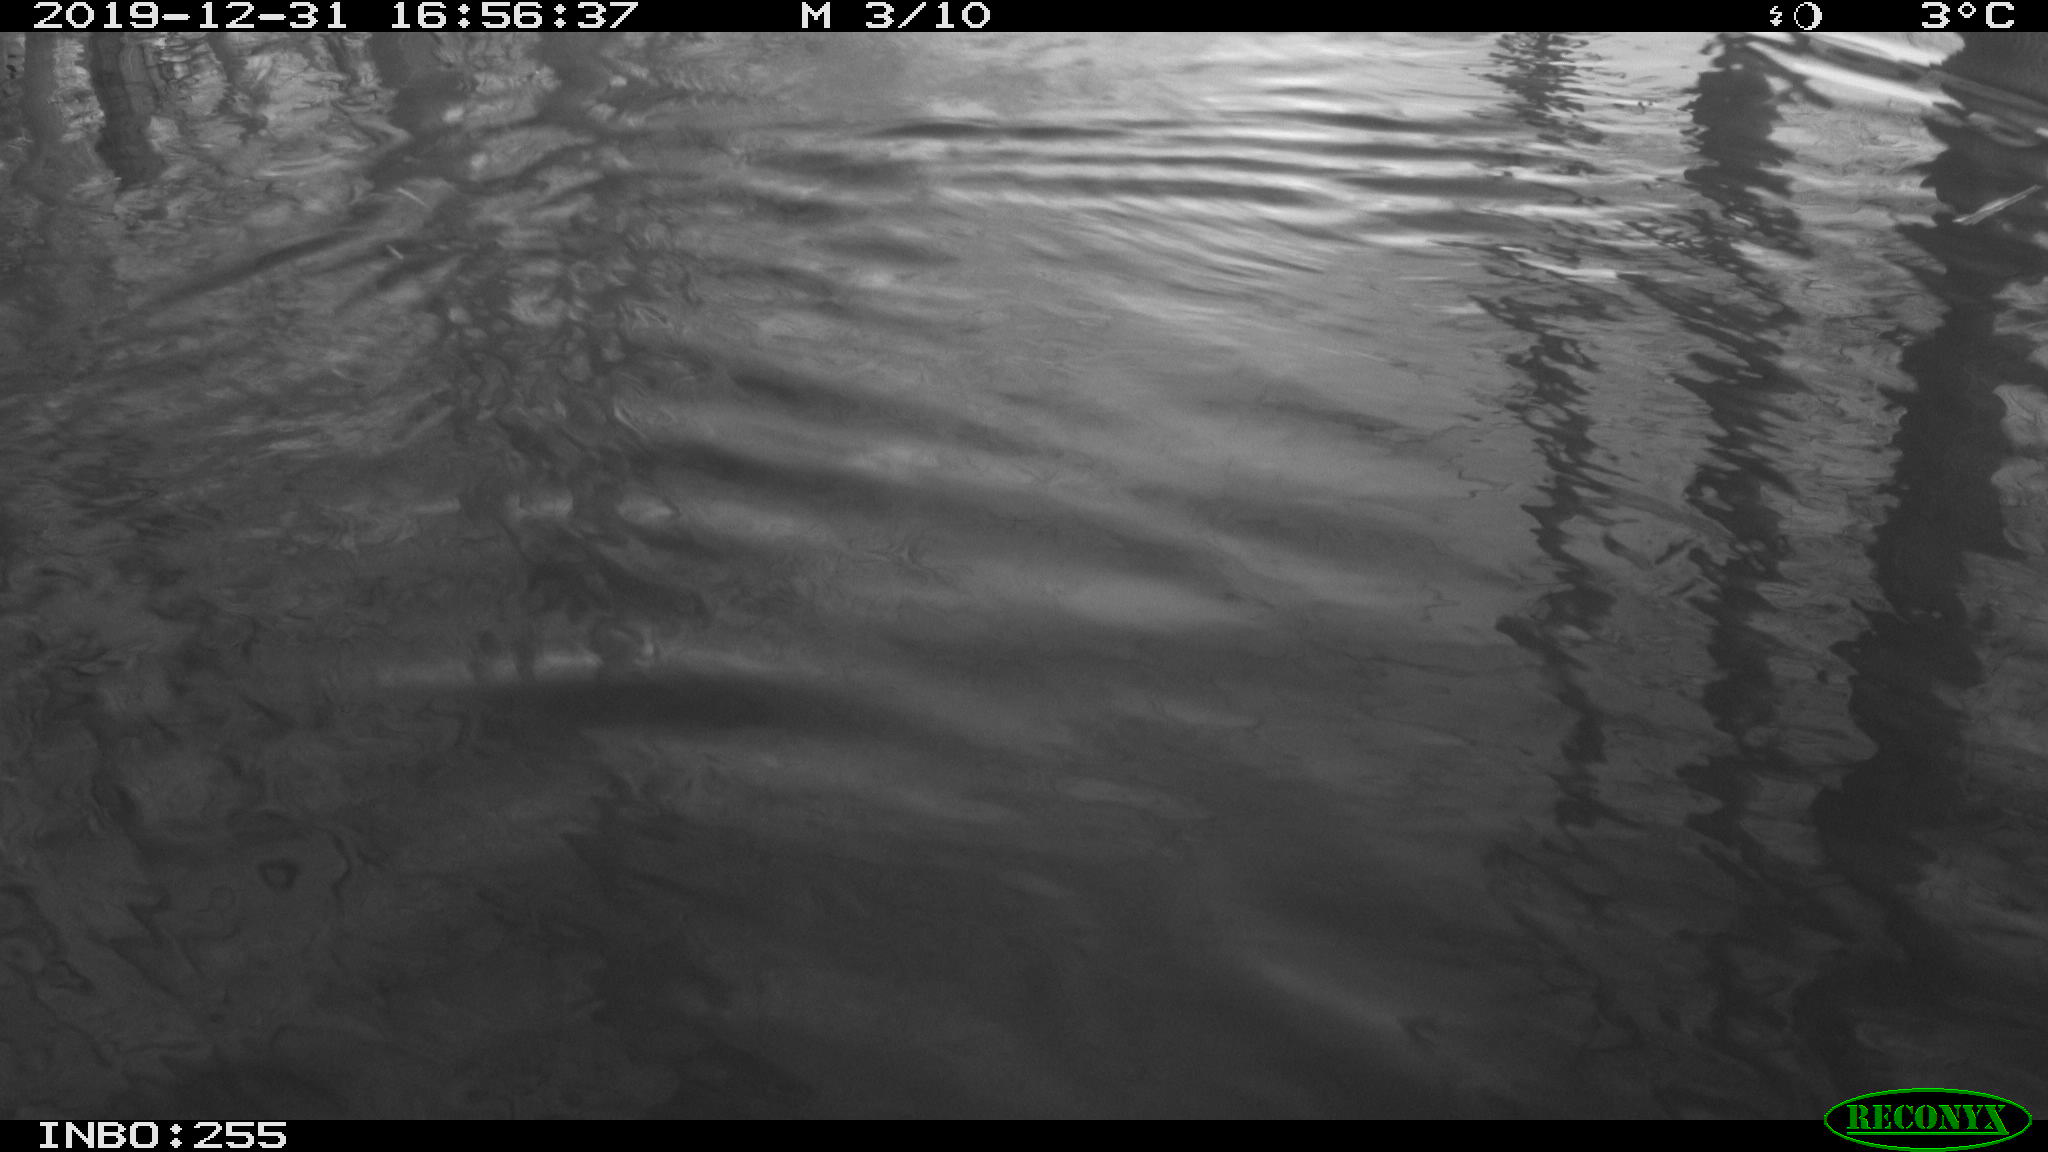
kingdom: Animalia
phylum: Chordata
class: Aves
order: Gruiformes
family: Rallidae
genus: Gallinula
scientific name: Gallinula chloropus
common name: Common moorhen
